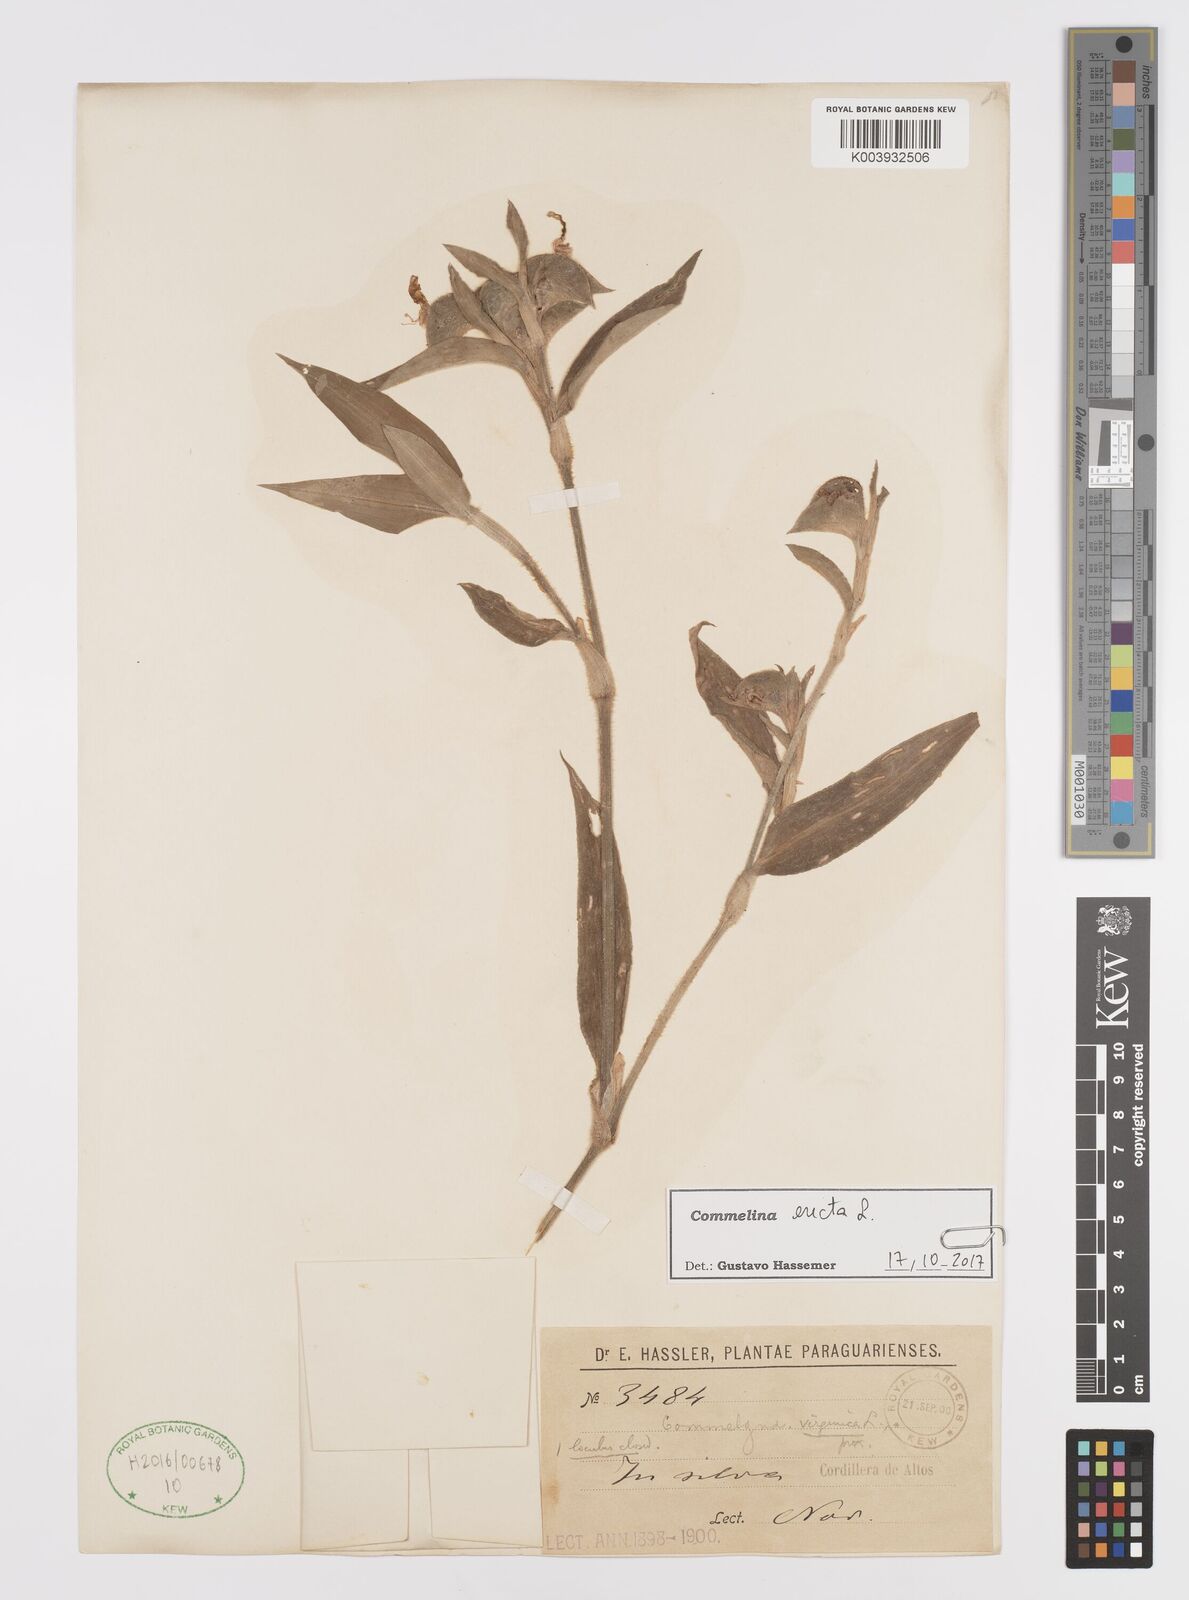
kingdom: Plantae
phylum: Tracheophyta
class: Liliopsida
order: Commelinales
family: Commelinaceae
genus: Commelina
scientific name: Commelina erecta
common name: Blousel blommetjie
